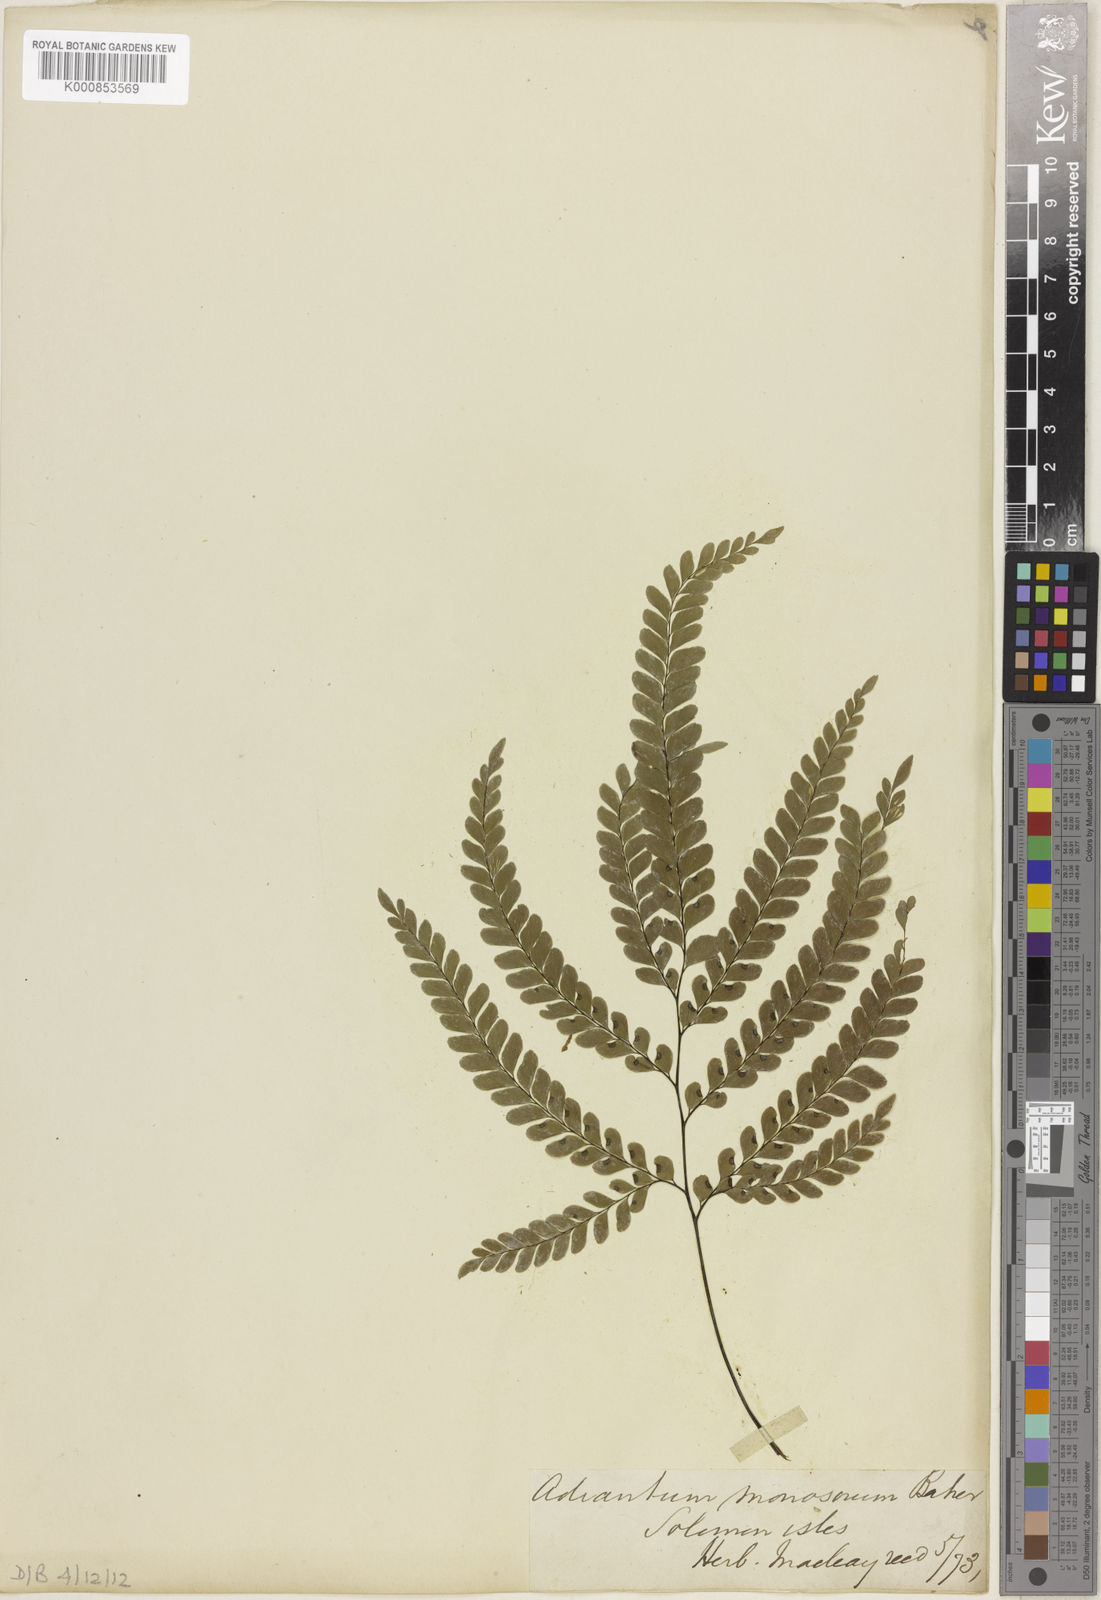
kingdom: Plantae
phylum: Tracheophyta
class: Polypodiopsida
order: Polypodiales
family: Pteridaceae
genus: Adiantum
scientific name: Adiantum monosorum
